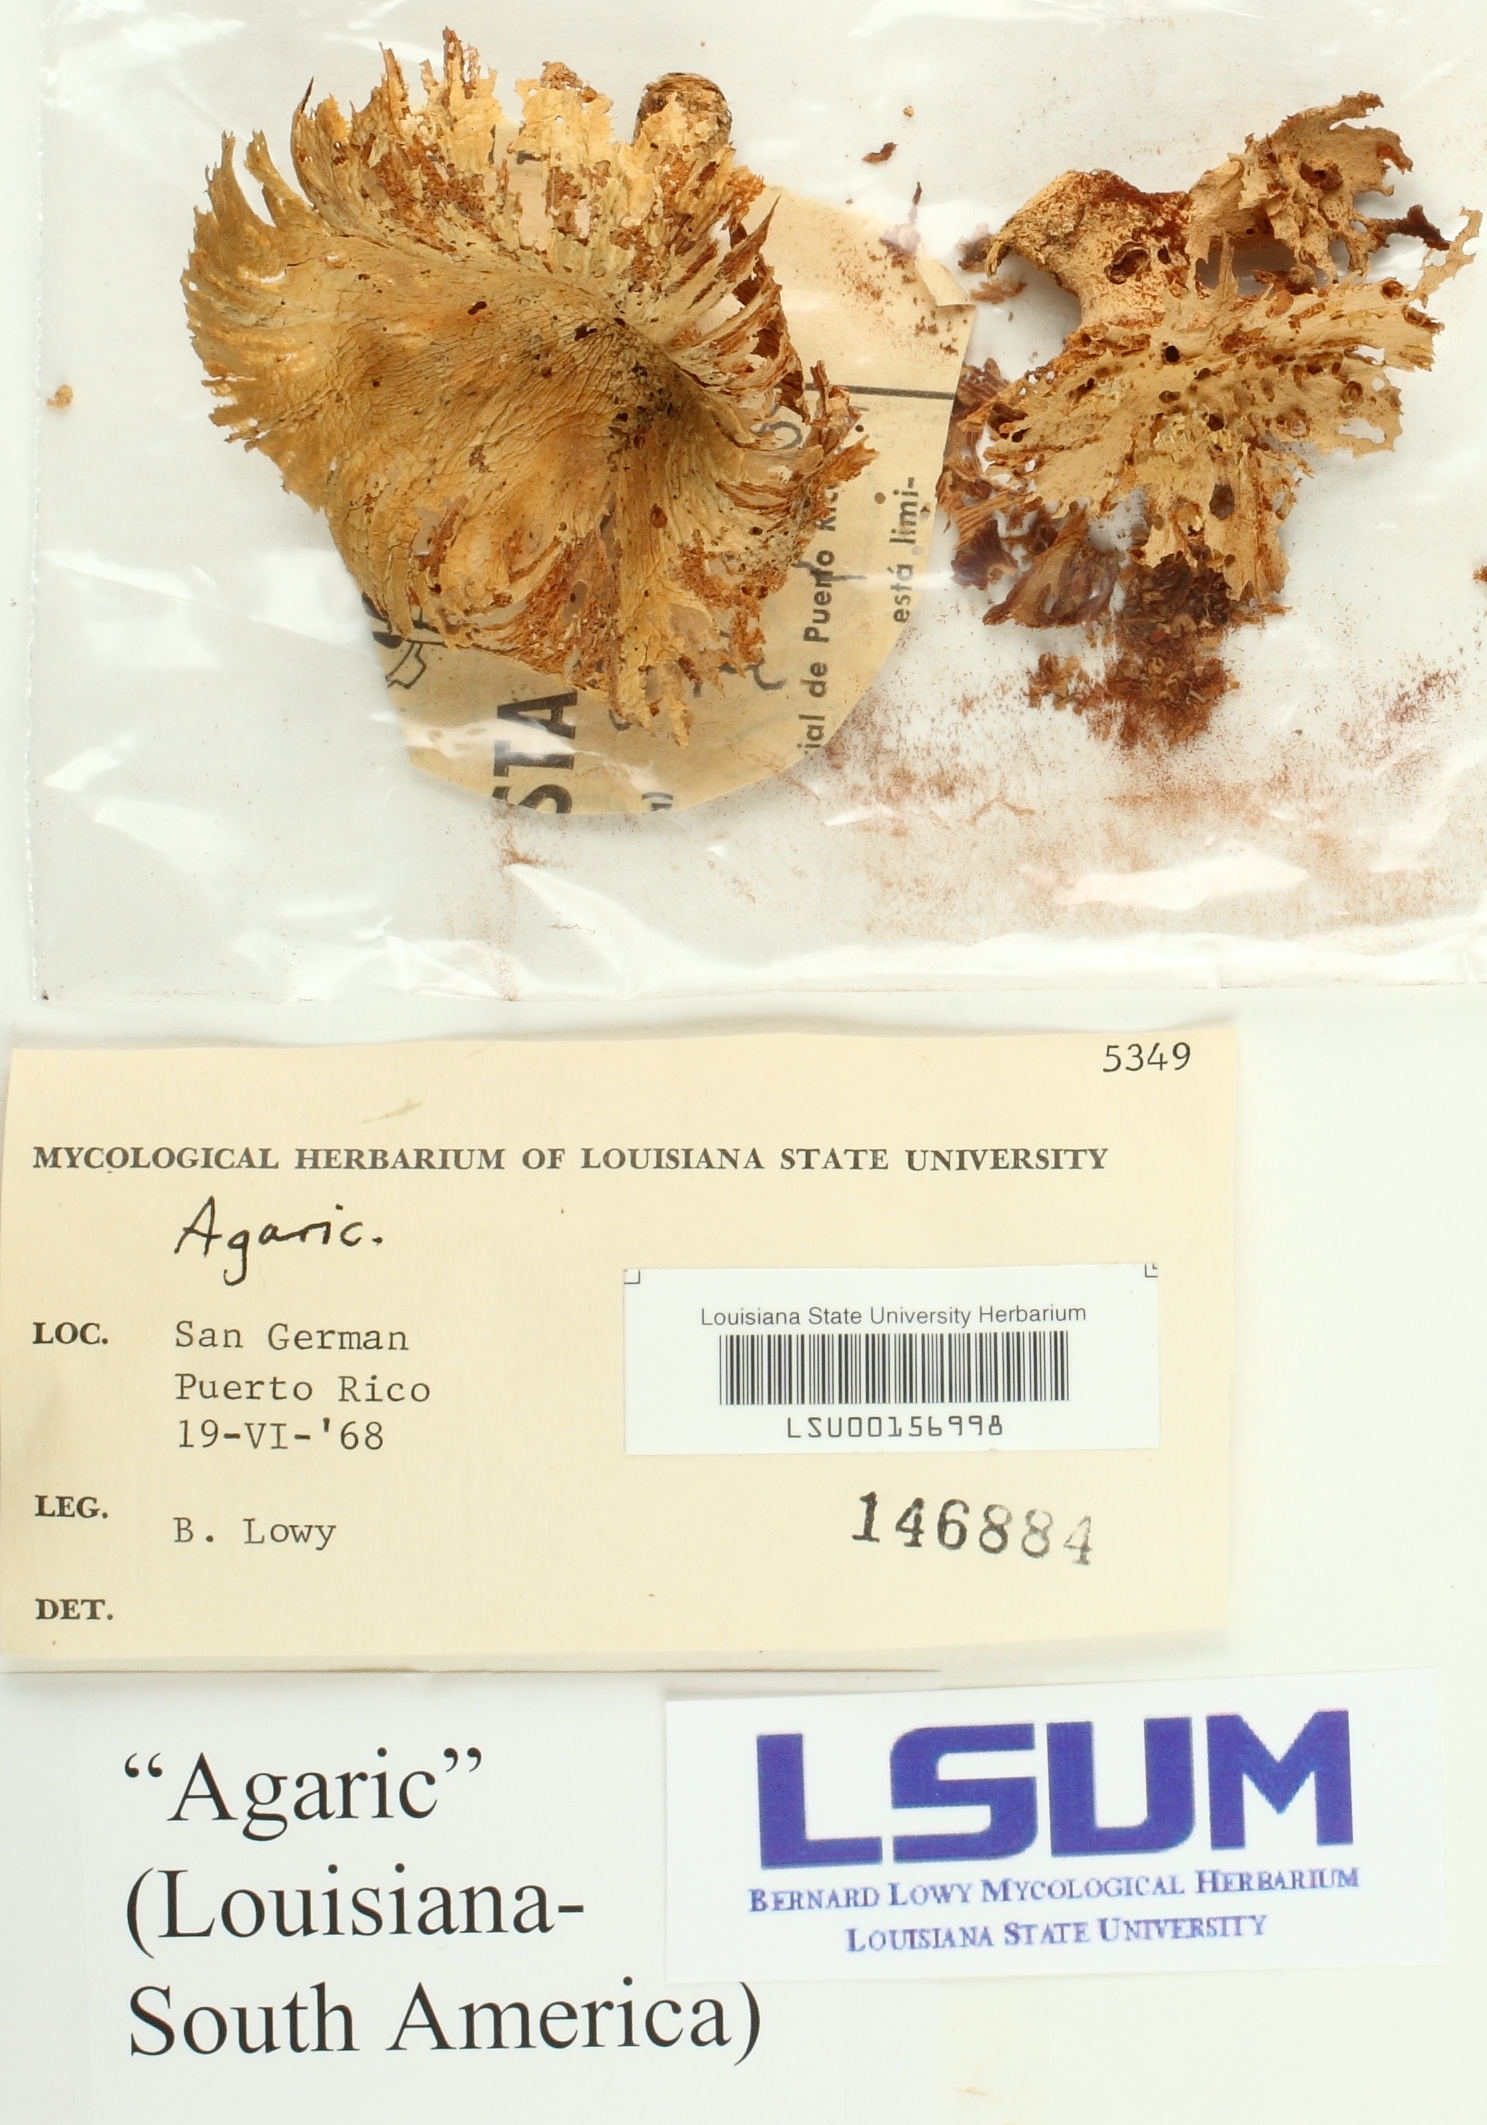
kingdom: Fungi
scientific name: Fungi
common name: Fungi
